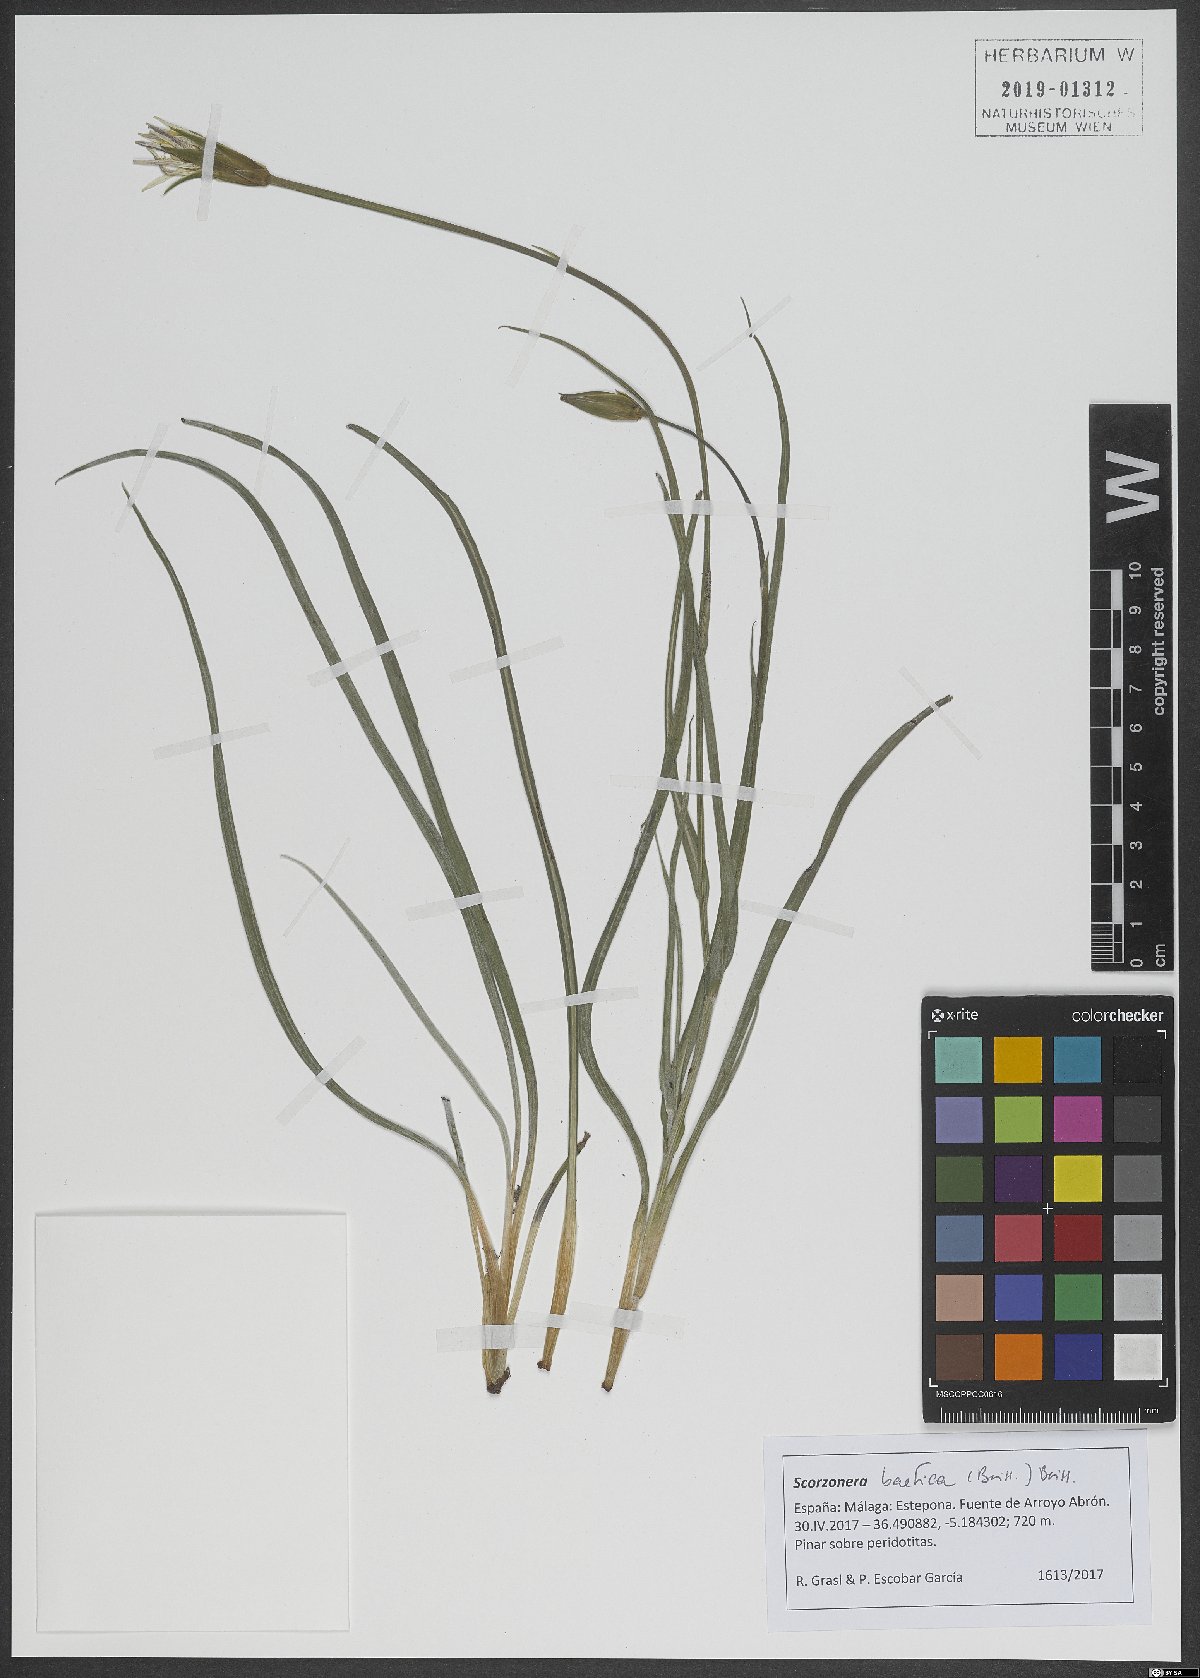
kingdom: Plantae
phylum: Tracheophyta
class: Magnoliopsida
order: Asterales
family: Asteraceae
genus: Scorzonera
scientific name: Scorzonera baetica
